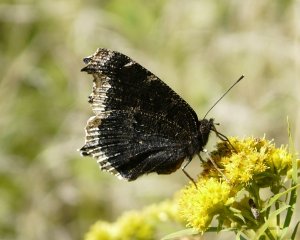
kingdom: Animalia
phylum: Arthropoda
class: Insecta
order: Lepidoptera
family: Nymphalidae
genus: Nymphalis
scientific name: Nymphalis antiopa
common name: Mourning Cloak
